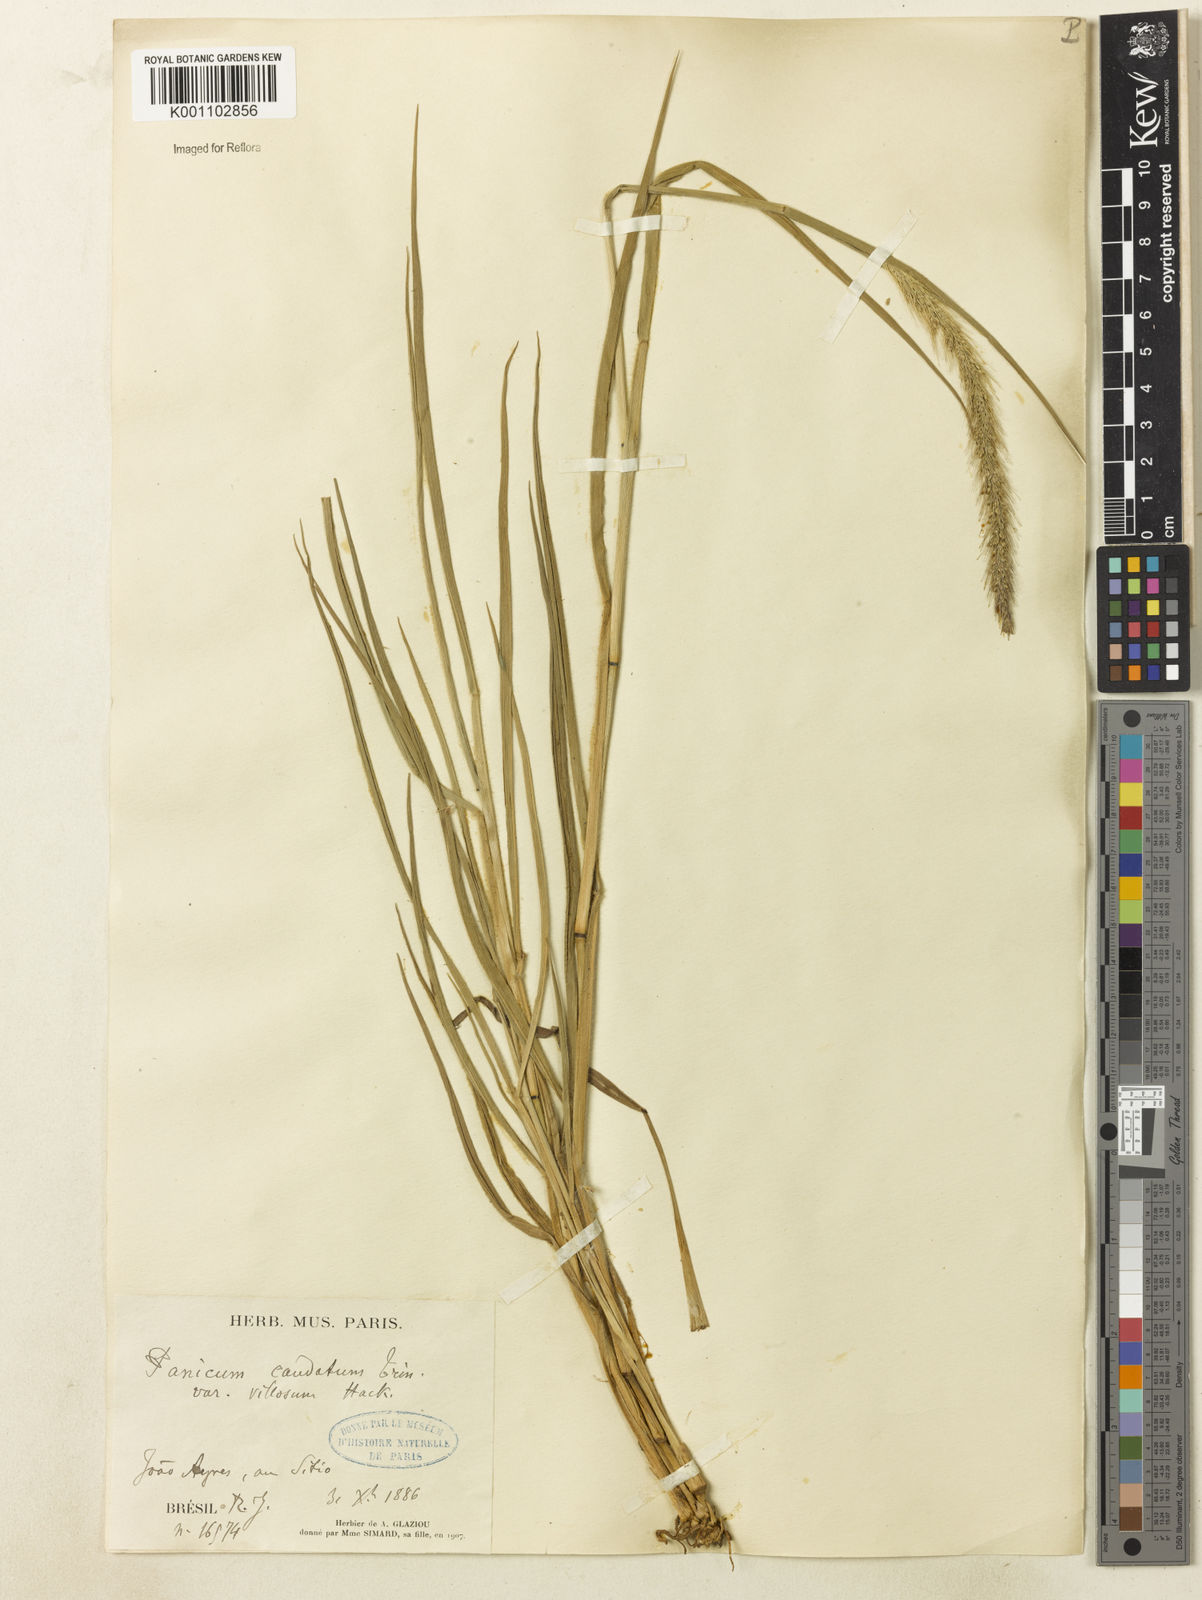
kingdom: Plantae
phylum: Tracheophyta
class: Liliopsida
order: Poales
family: Poaceae
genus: Setaria
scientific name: Setaria scabrifolia
